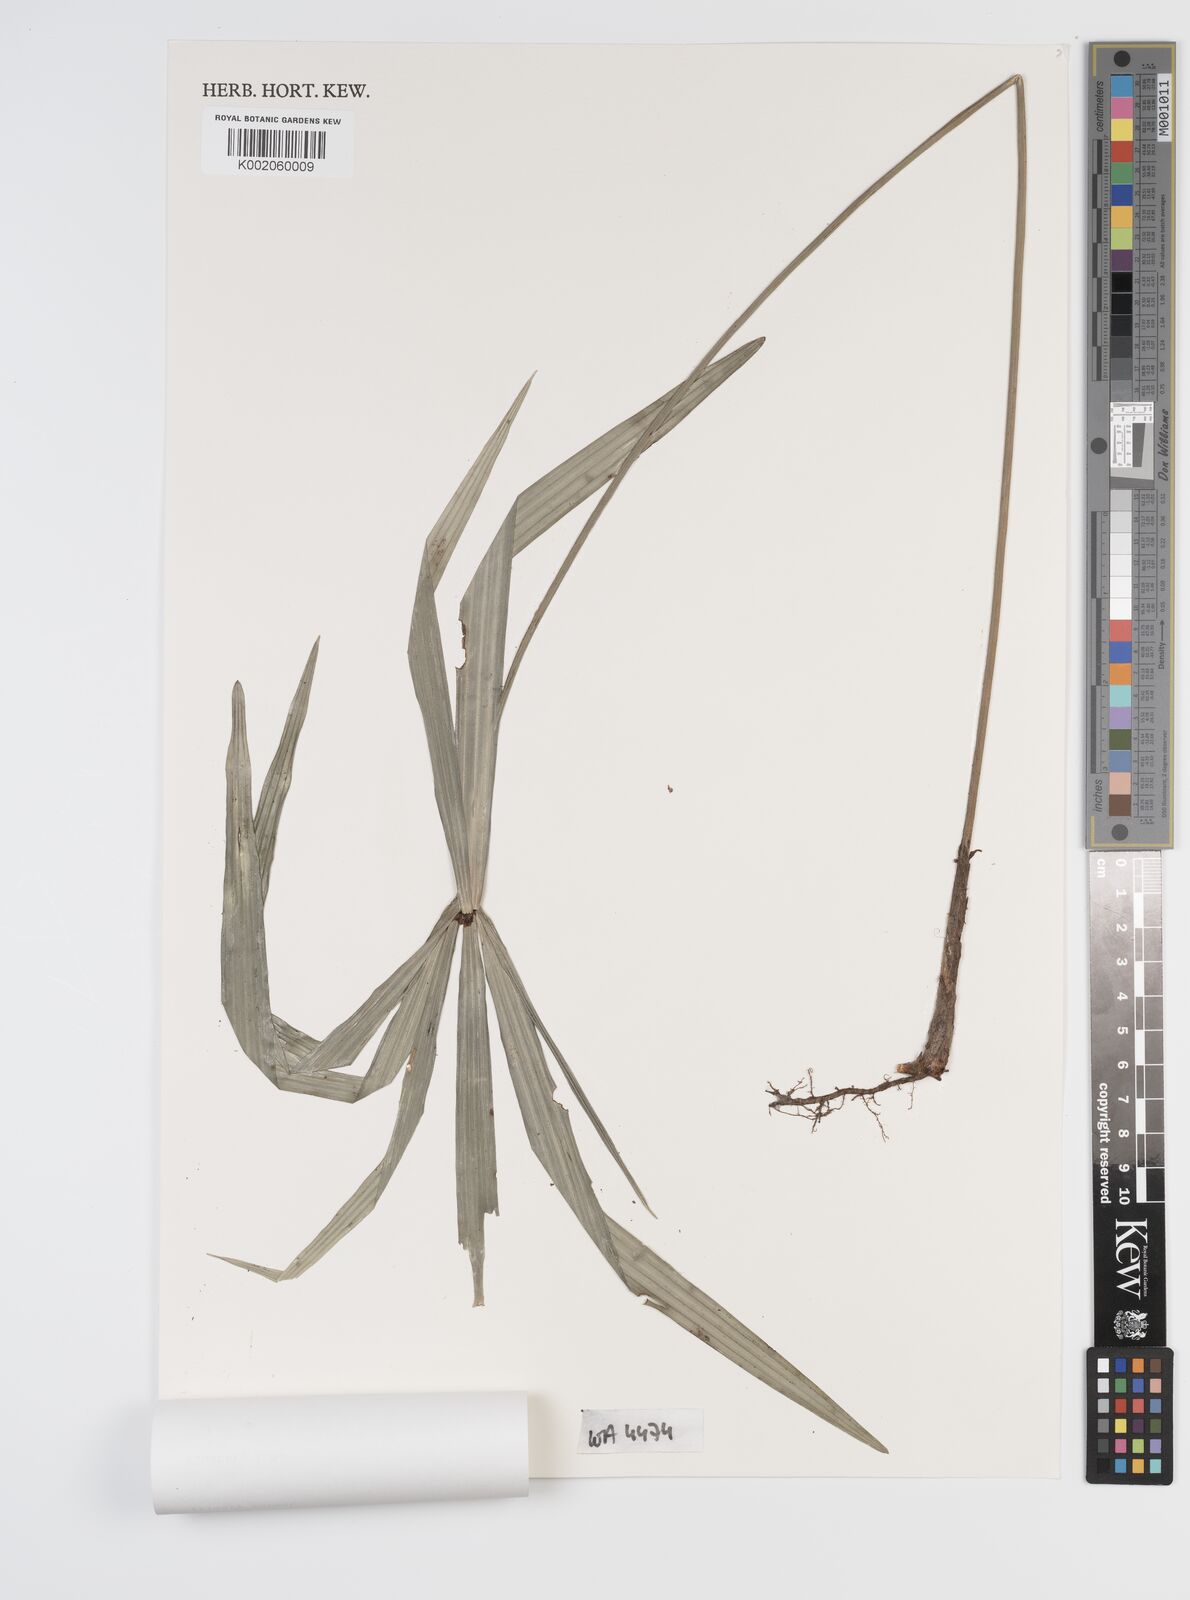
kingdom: Plantae
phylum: Tracheophyta
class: Liliopsida
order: Poales
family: Cyperaceae
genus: Capitularina
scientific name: Capitularina involucrata
